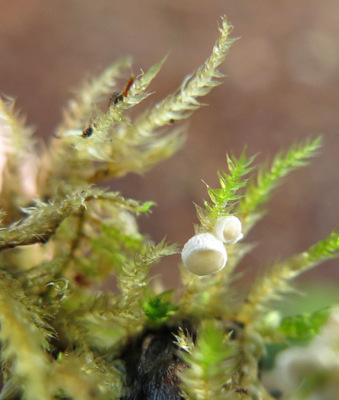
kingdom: Fungi
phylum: Basidiomycota
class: Agaricomycetes
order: Agaricales
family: Tricholomataceae
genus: Rimbachia
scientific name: Rimbachia arachnoidea
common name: Almindelig mosskål
